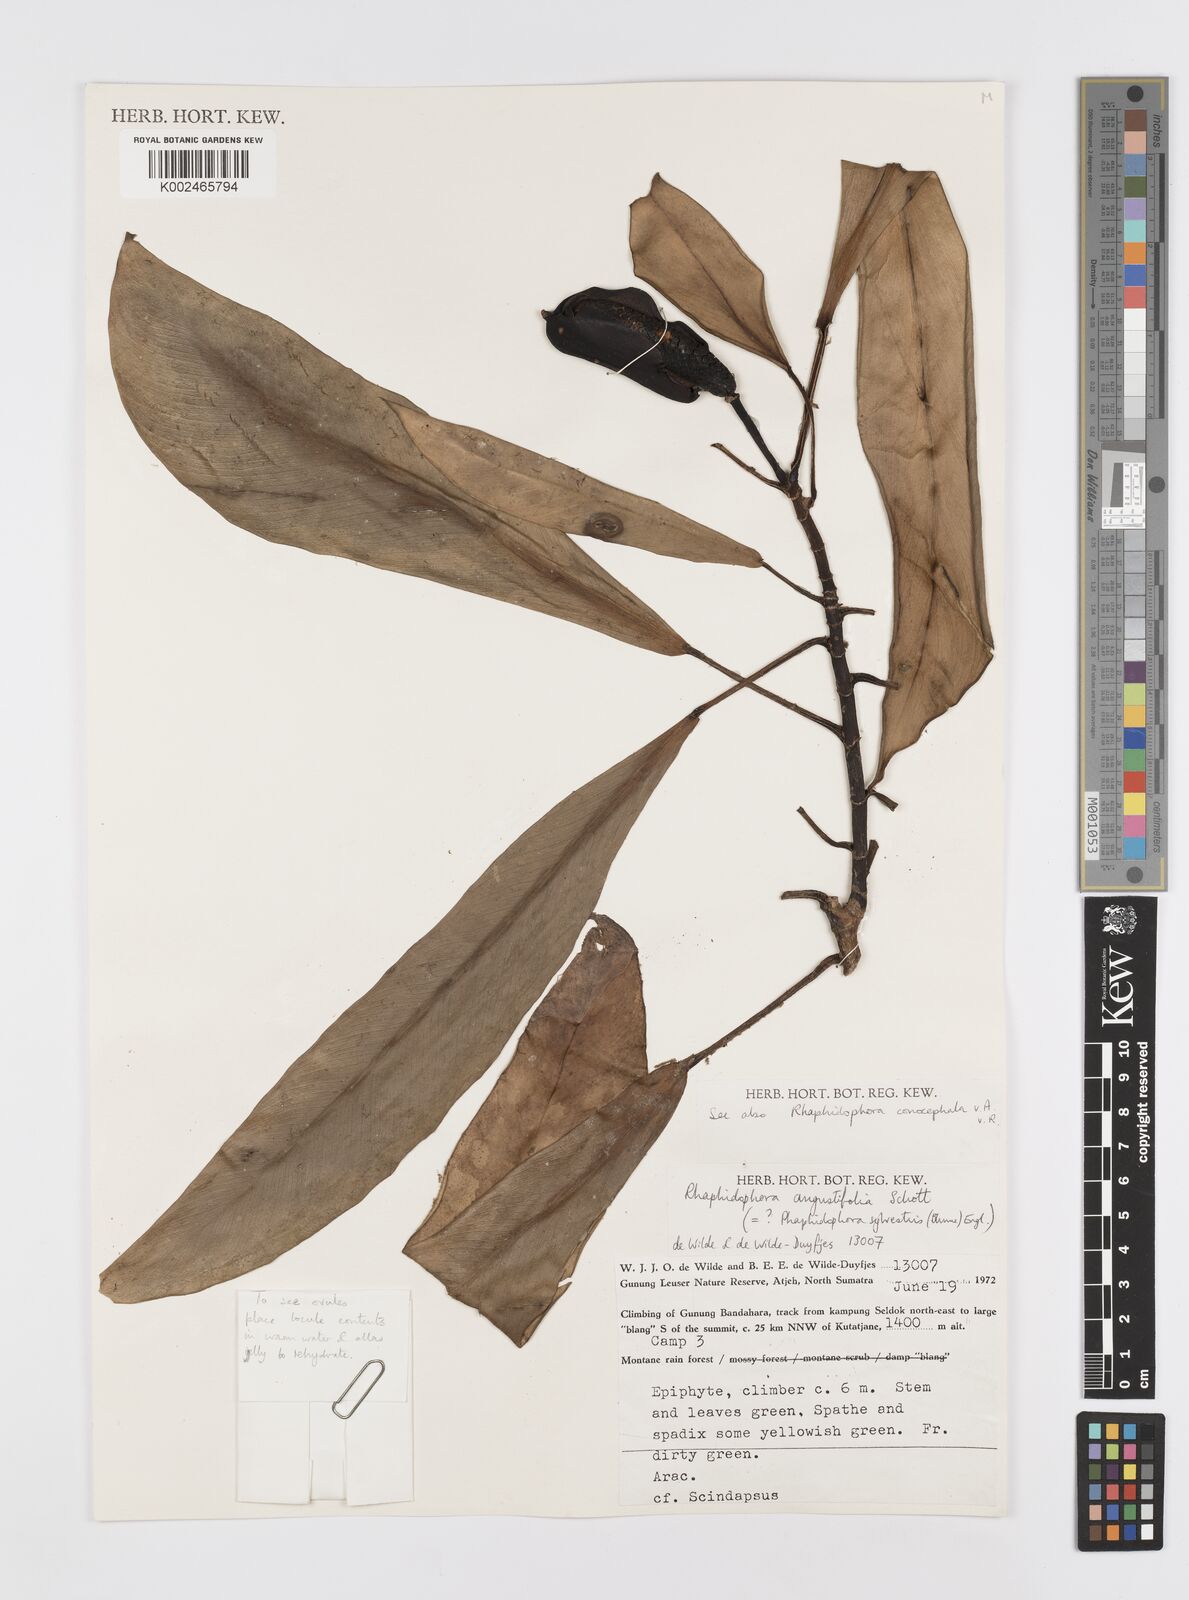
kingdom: Plantae
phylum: Tracheophyta
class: Liliopsida
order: Alismatales
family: Araceae
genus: Rhaphidophora
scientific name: Rhaphidophora sylvestris
